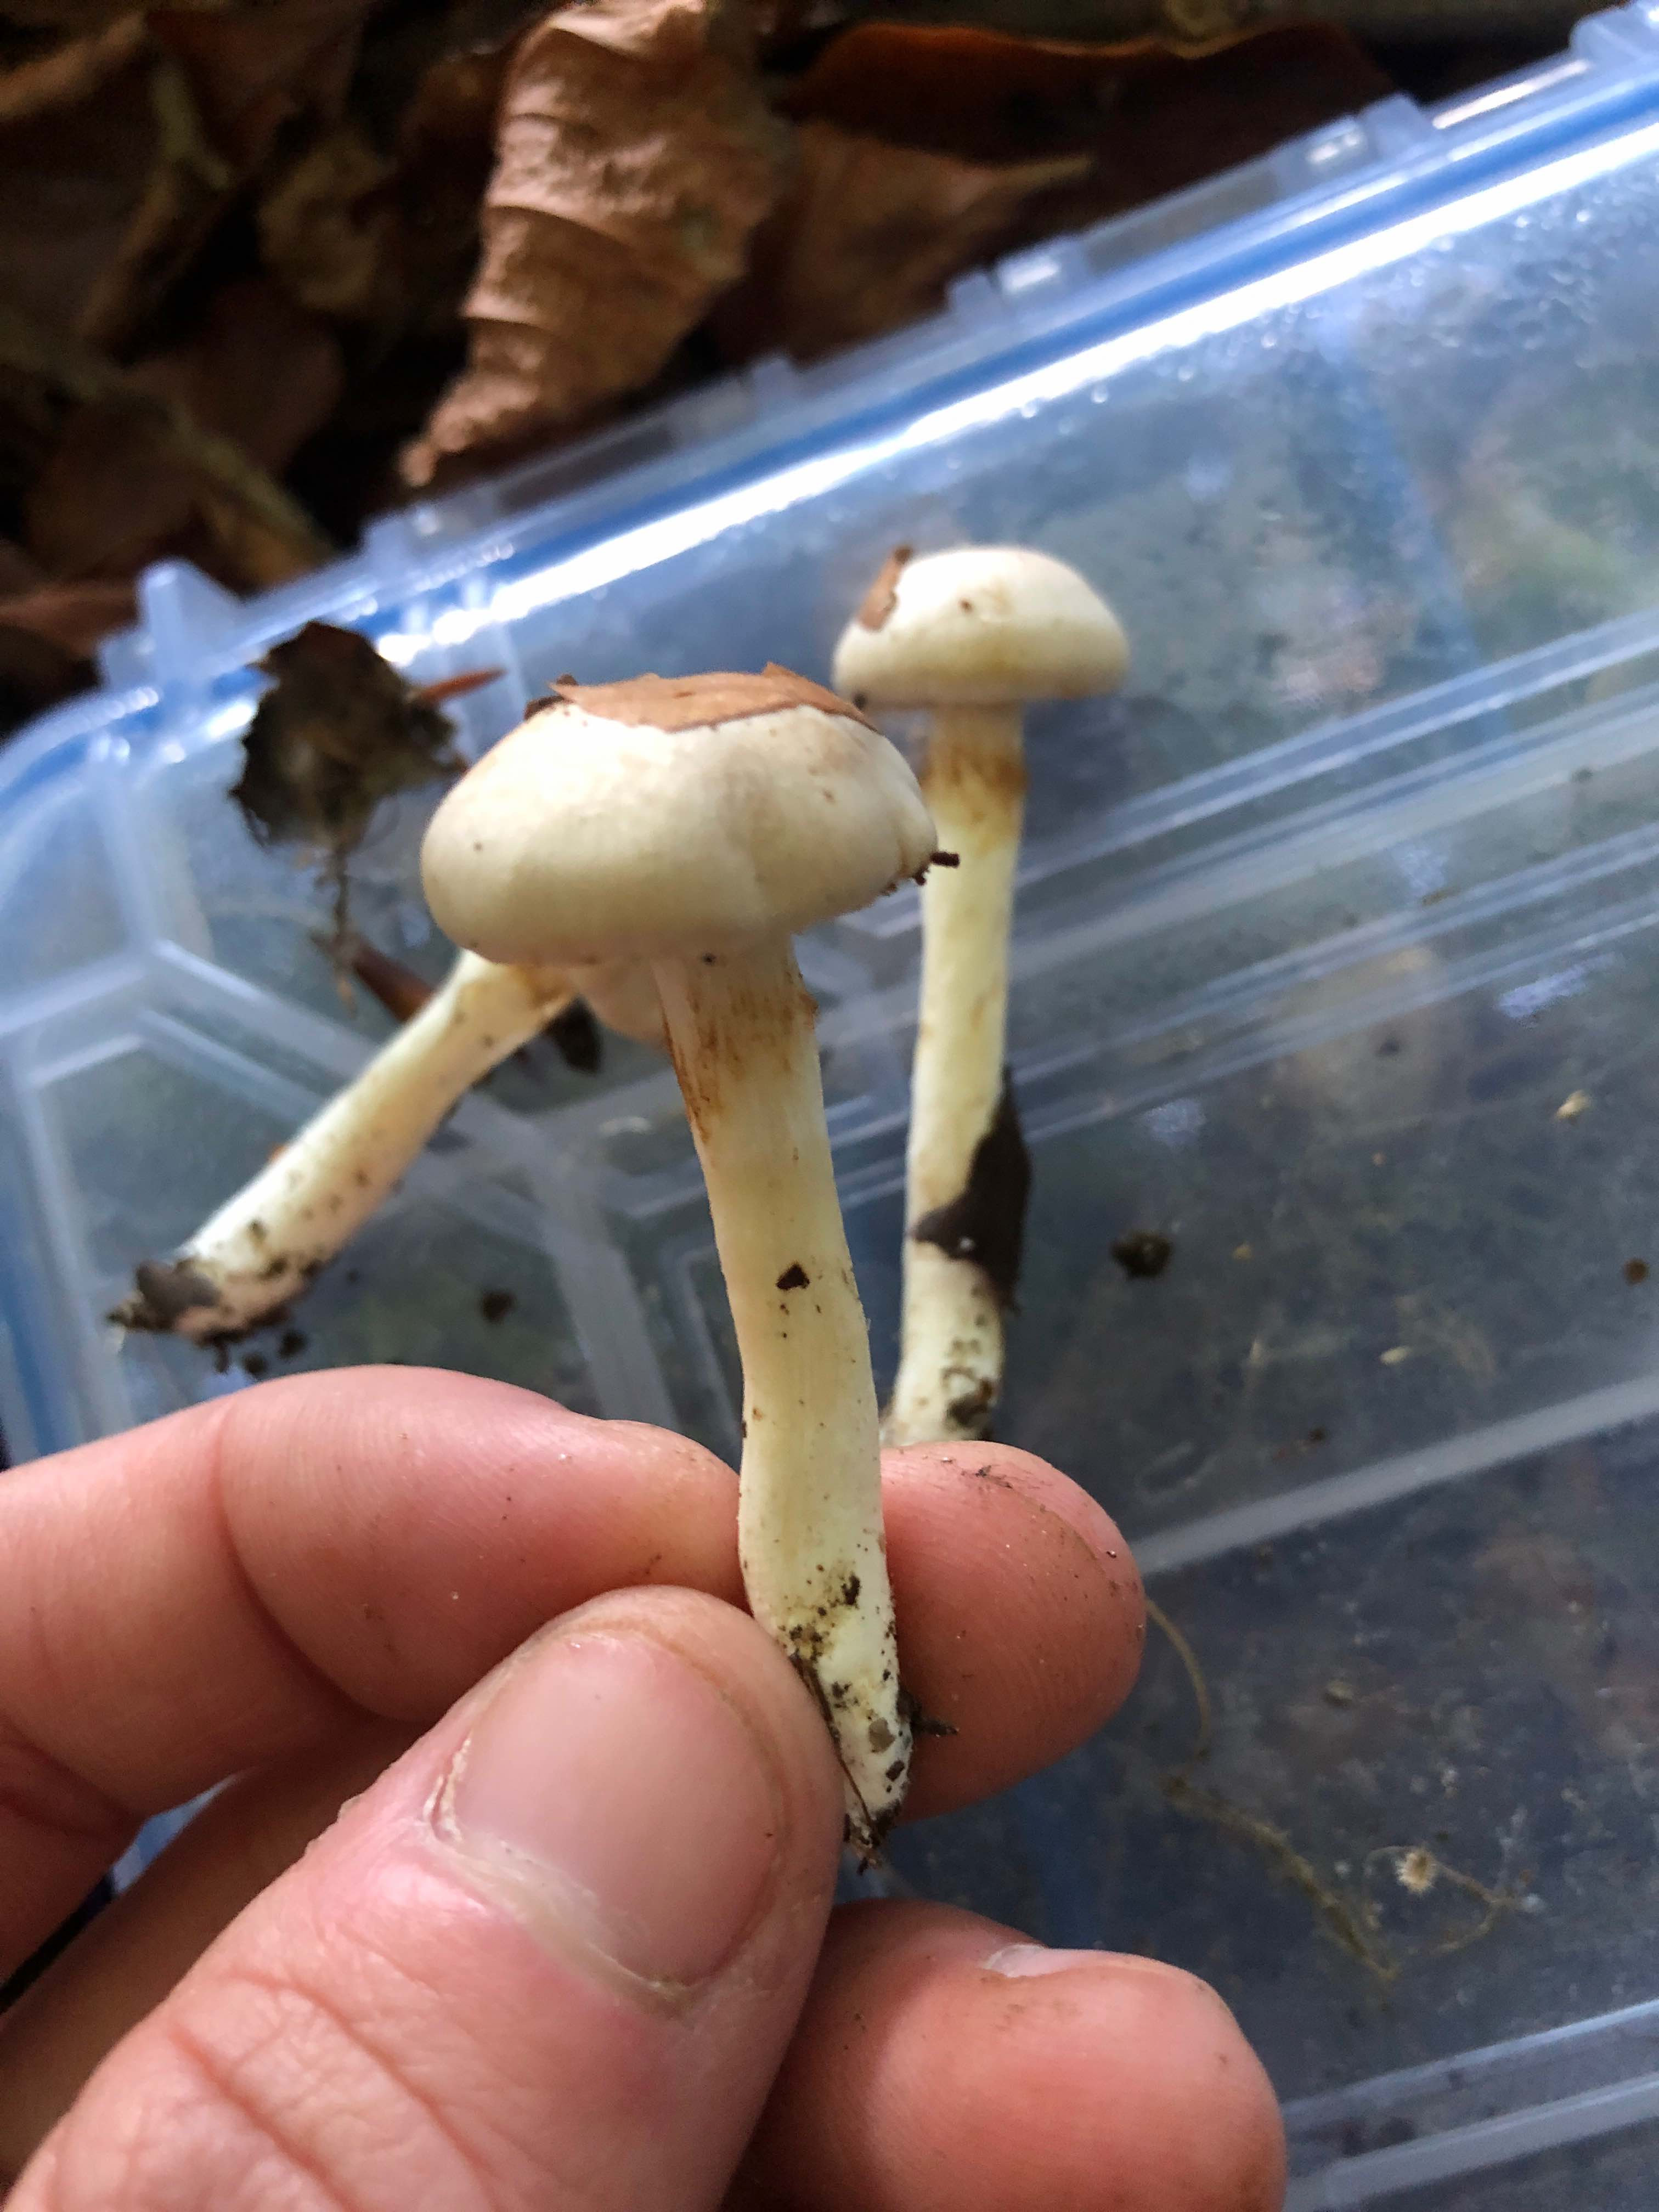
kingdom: Fungi
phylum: Basidiomycota
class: Agaricomycetes
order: Agaricales
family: Cortinariaceae
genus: Cortinarius
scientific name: Cortinarius
